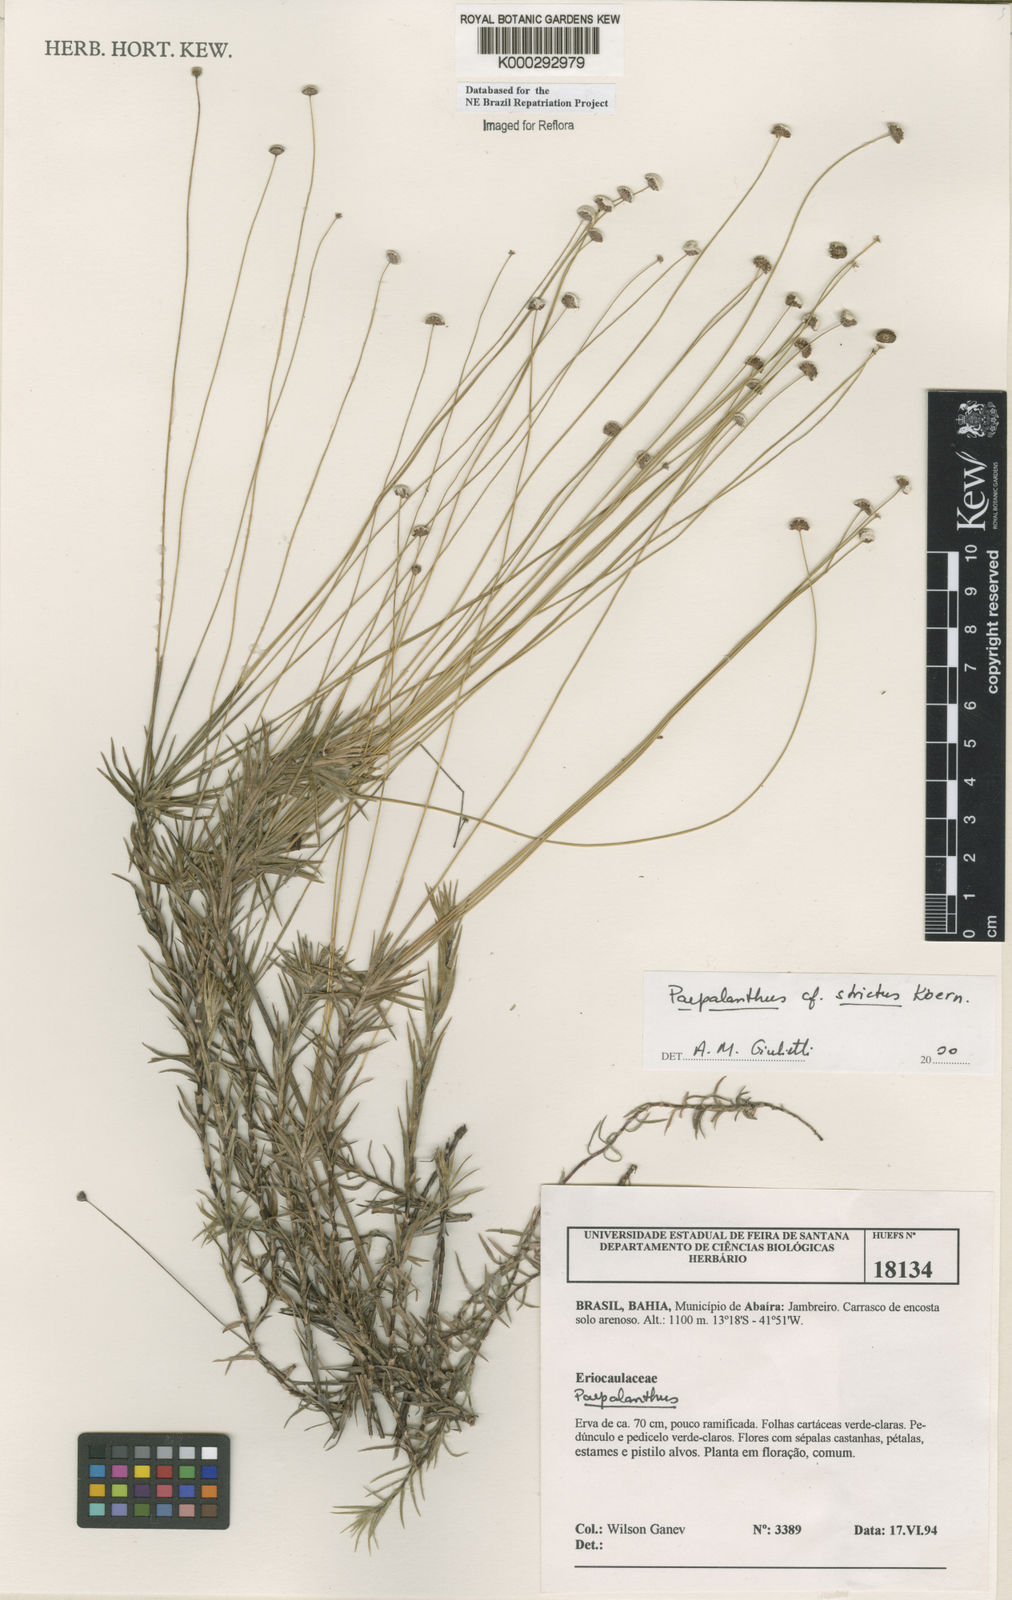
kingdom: Plantae
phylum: Tracheophyta
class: Liliopsida
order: Poales
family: Eriocaulaceae
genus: Paepalanthus
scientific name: Paepalanthus
